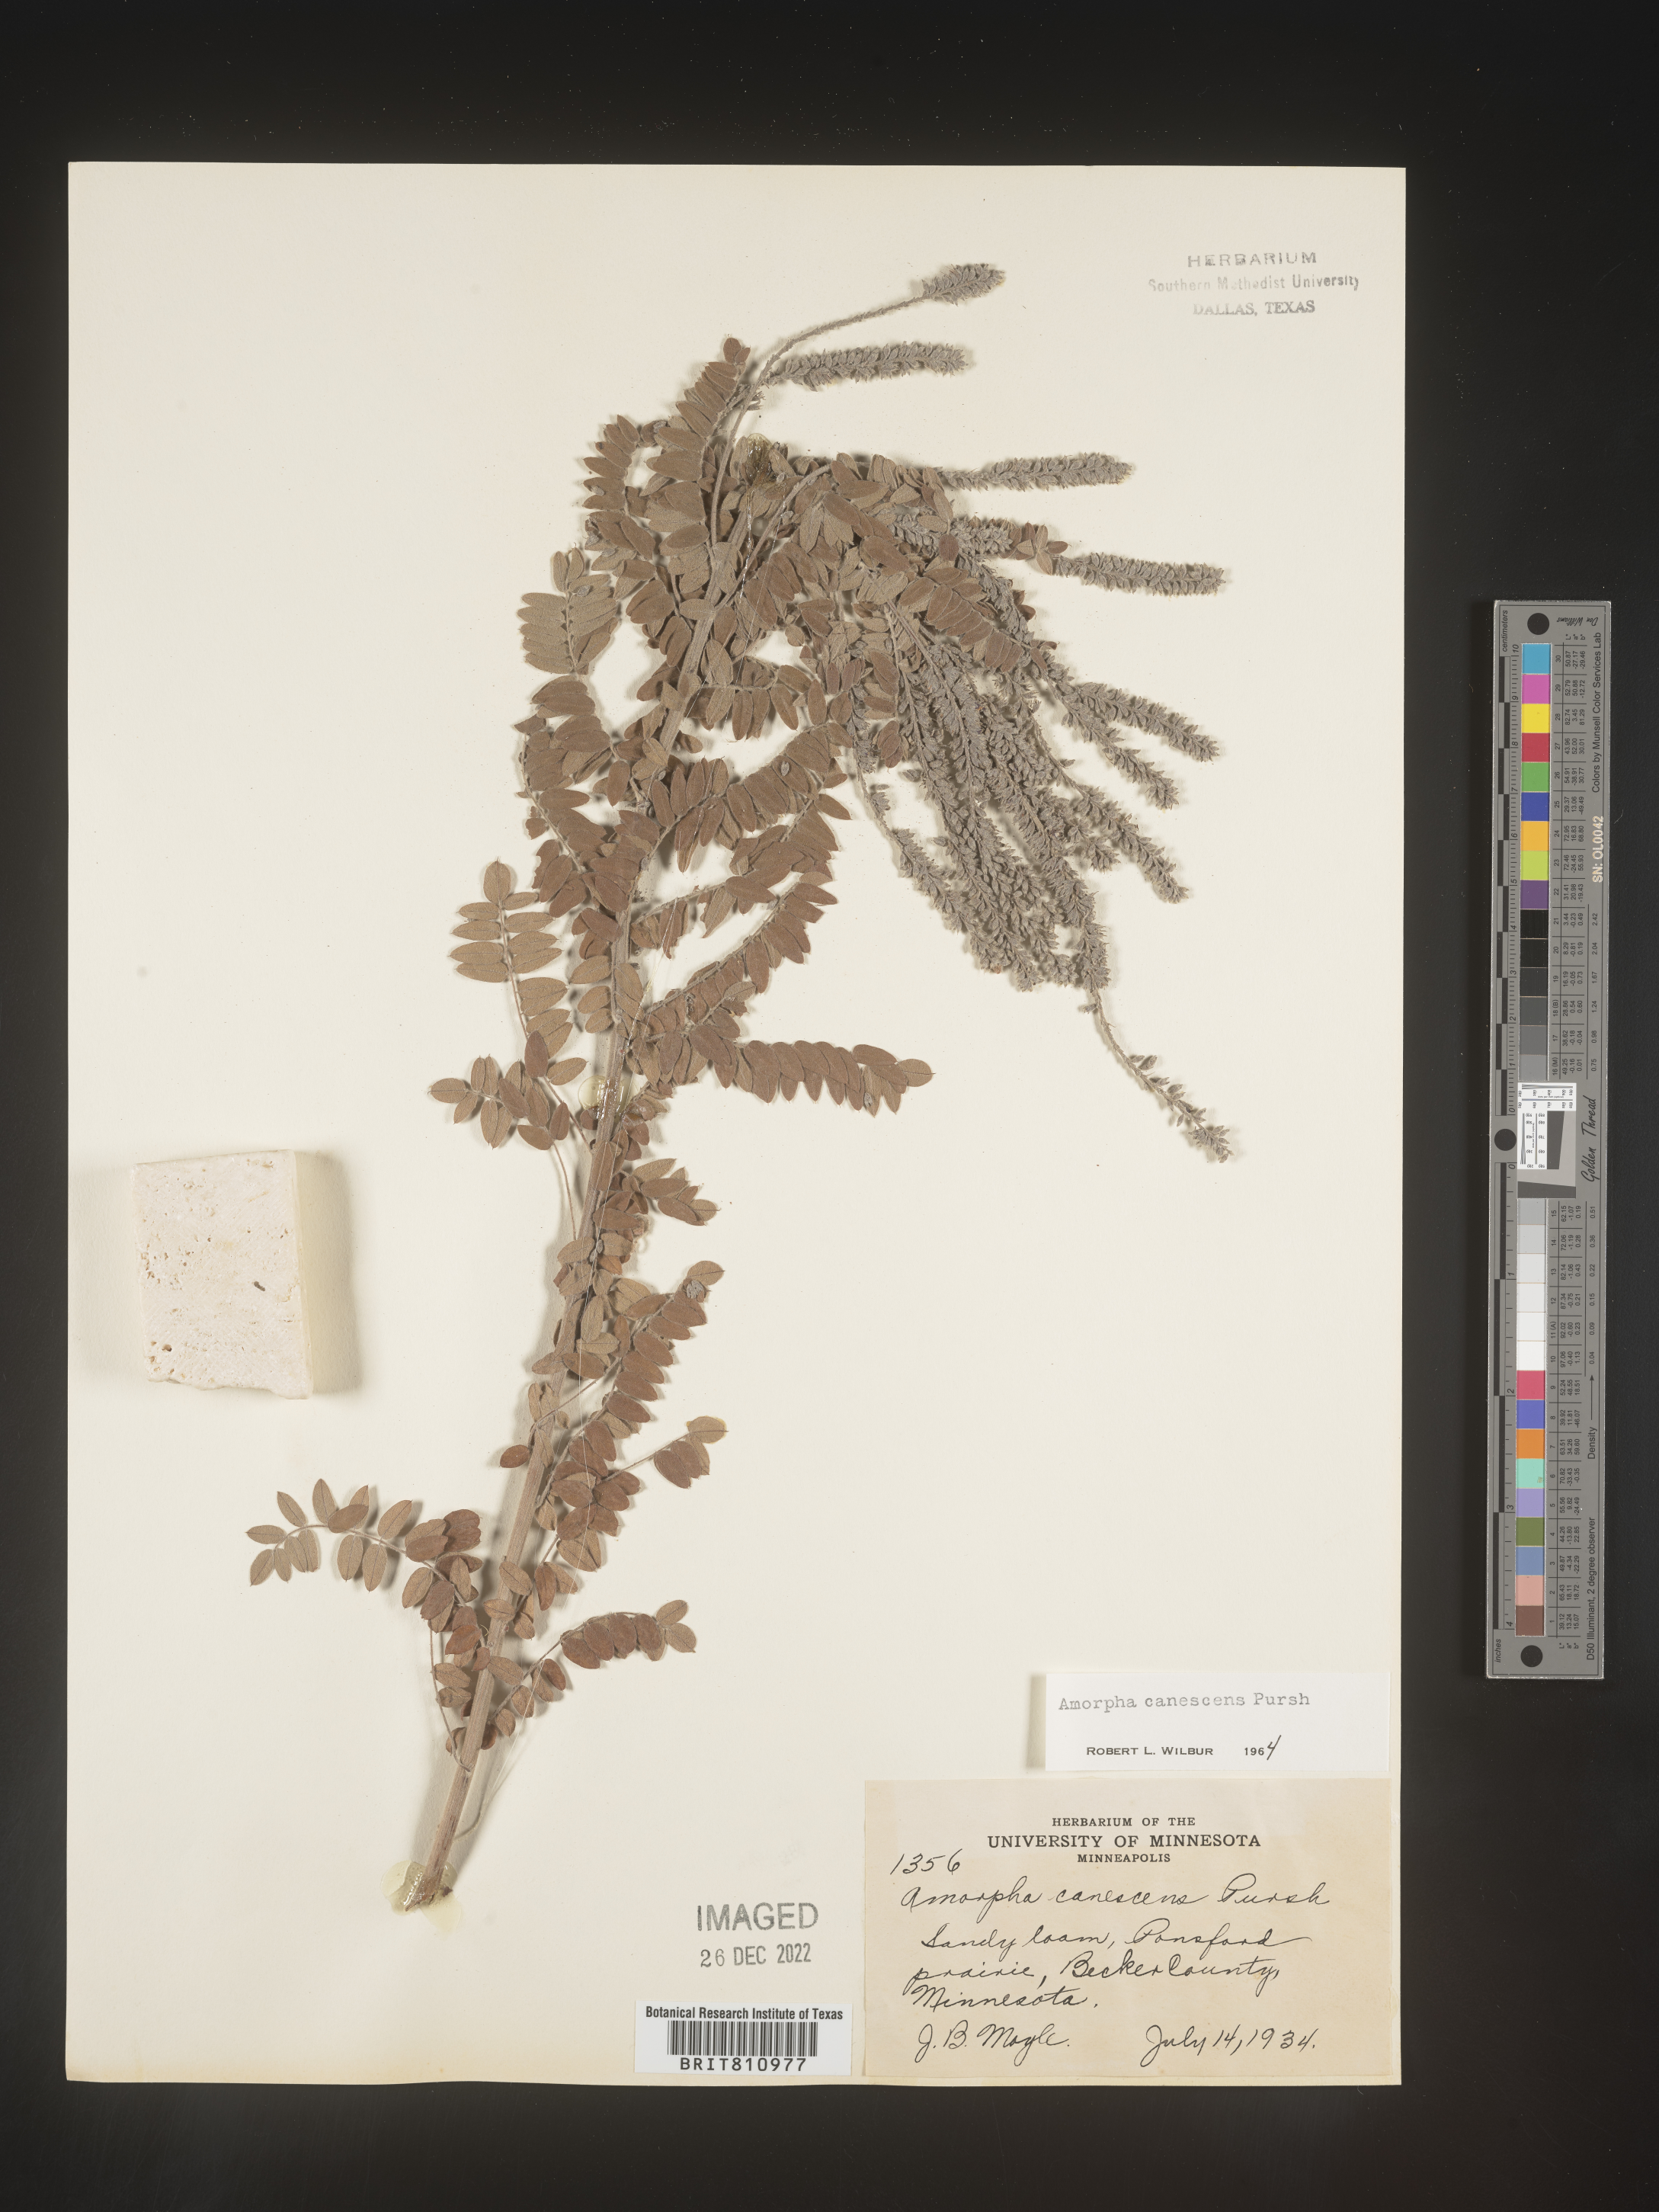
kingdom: Plantae
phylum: Tracheophyta
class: Magnoliopsida
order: Fabales
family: Fabaceae
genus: Amorpha
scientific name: Amorpha canescens
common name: Leadplant
